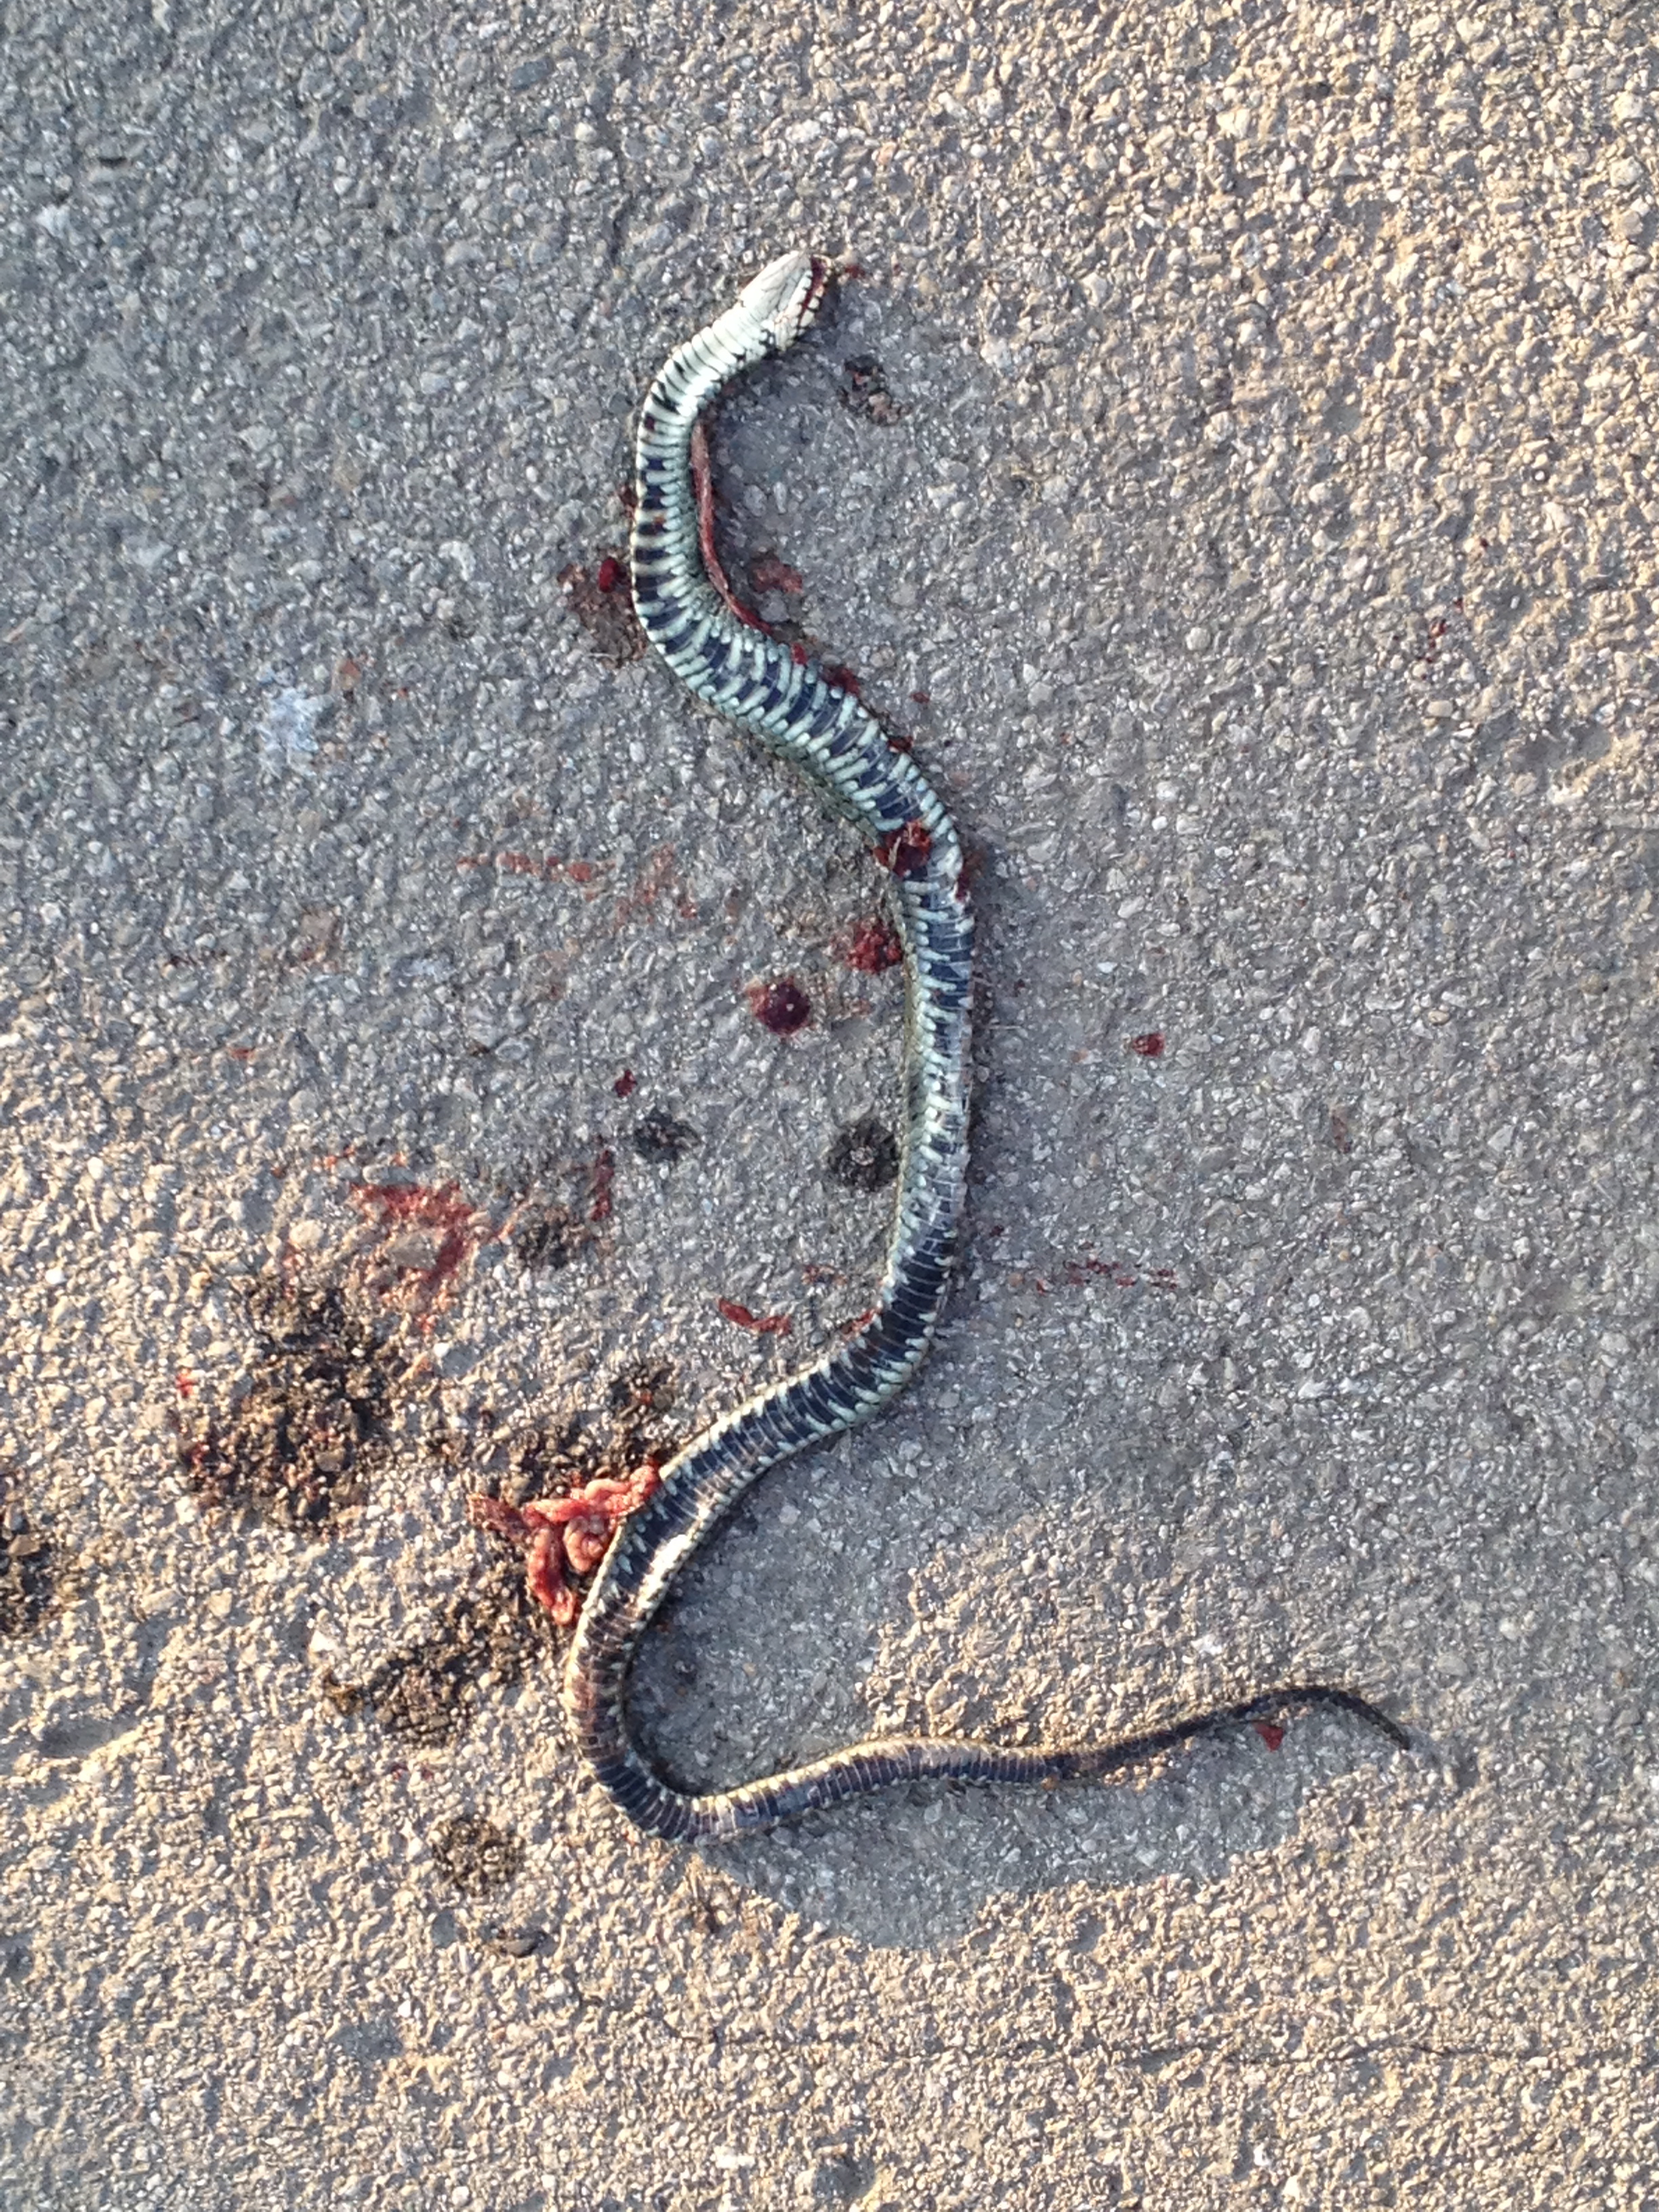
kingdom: Animalia
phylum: Chordata
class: Squamata
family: Colubridae
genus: Natrix
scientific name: Natrix natrix
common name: Grass snake
